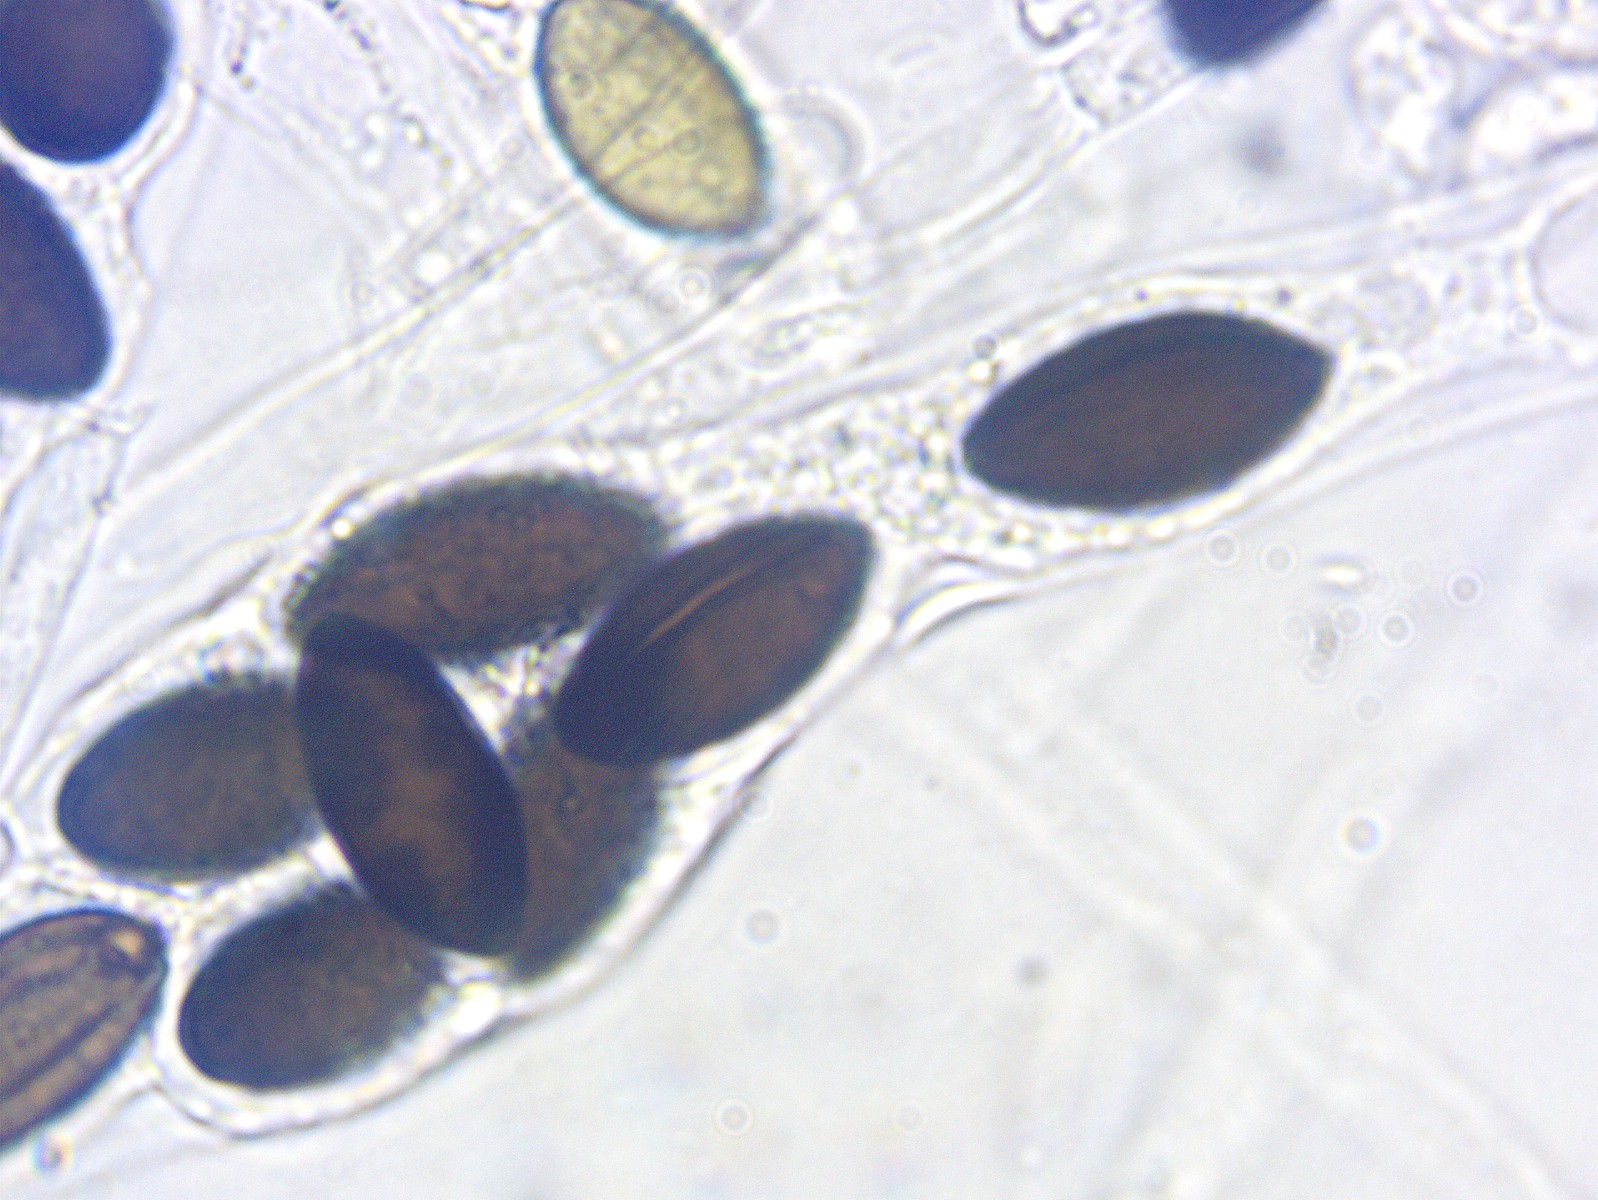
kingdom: Fungi
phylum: Ascomycota
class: Sordariomycetes
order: Xylariales
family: Xylariaceae
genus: Podosordaria
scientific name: Podosordaria tulasnei
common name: gødnings-stødsvamp
